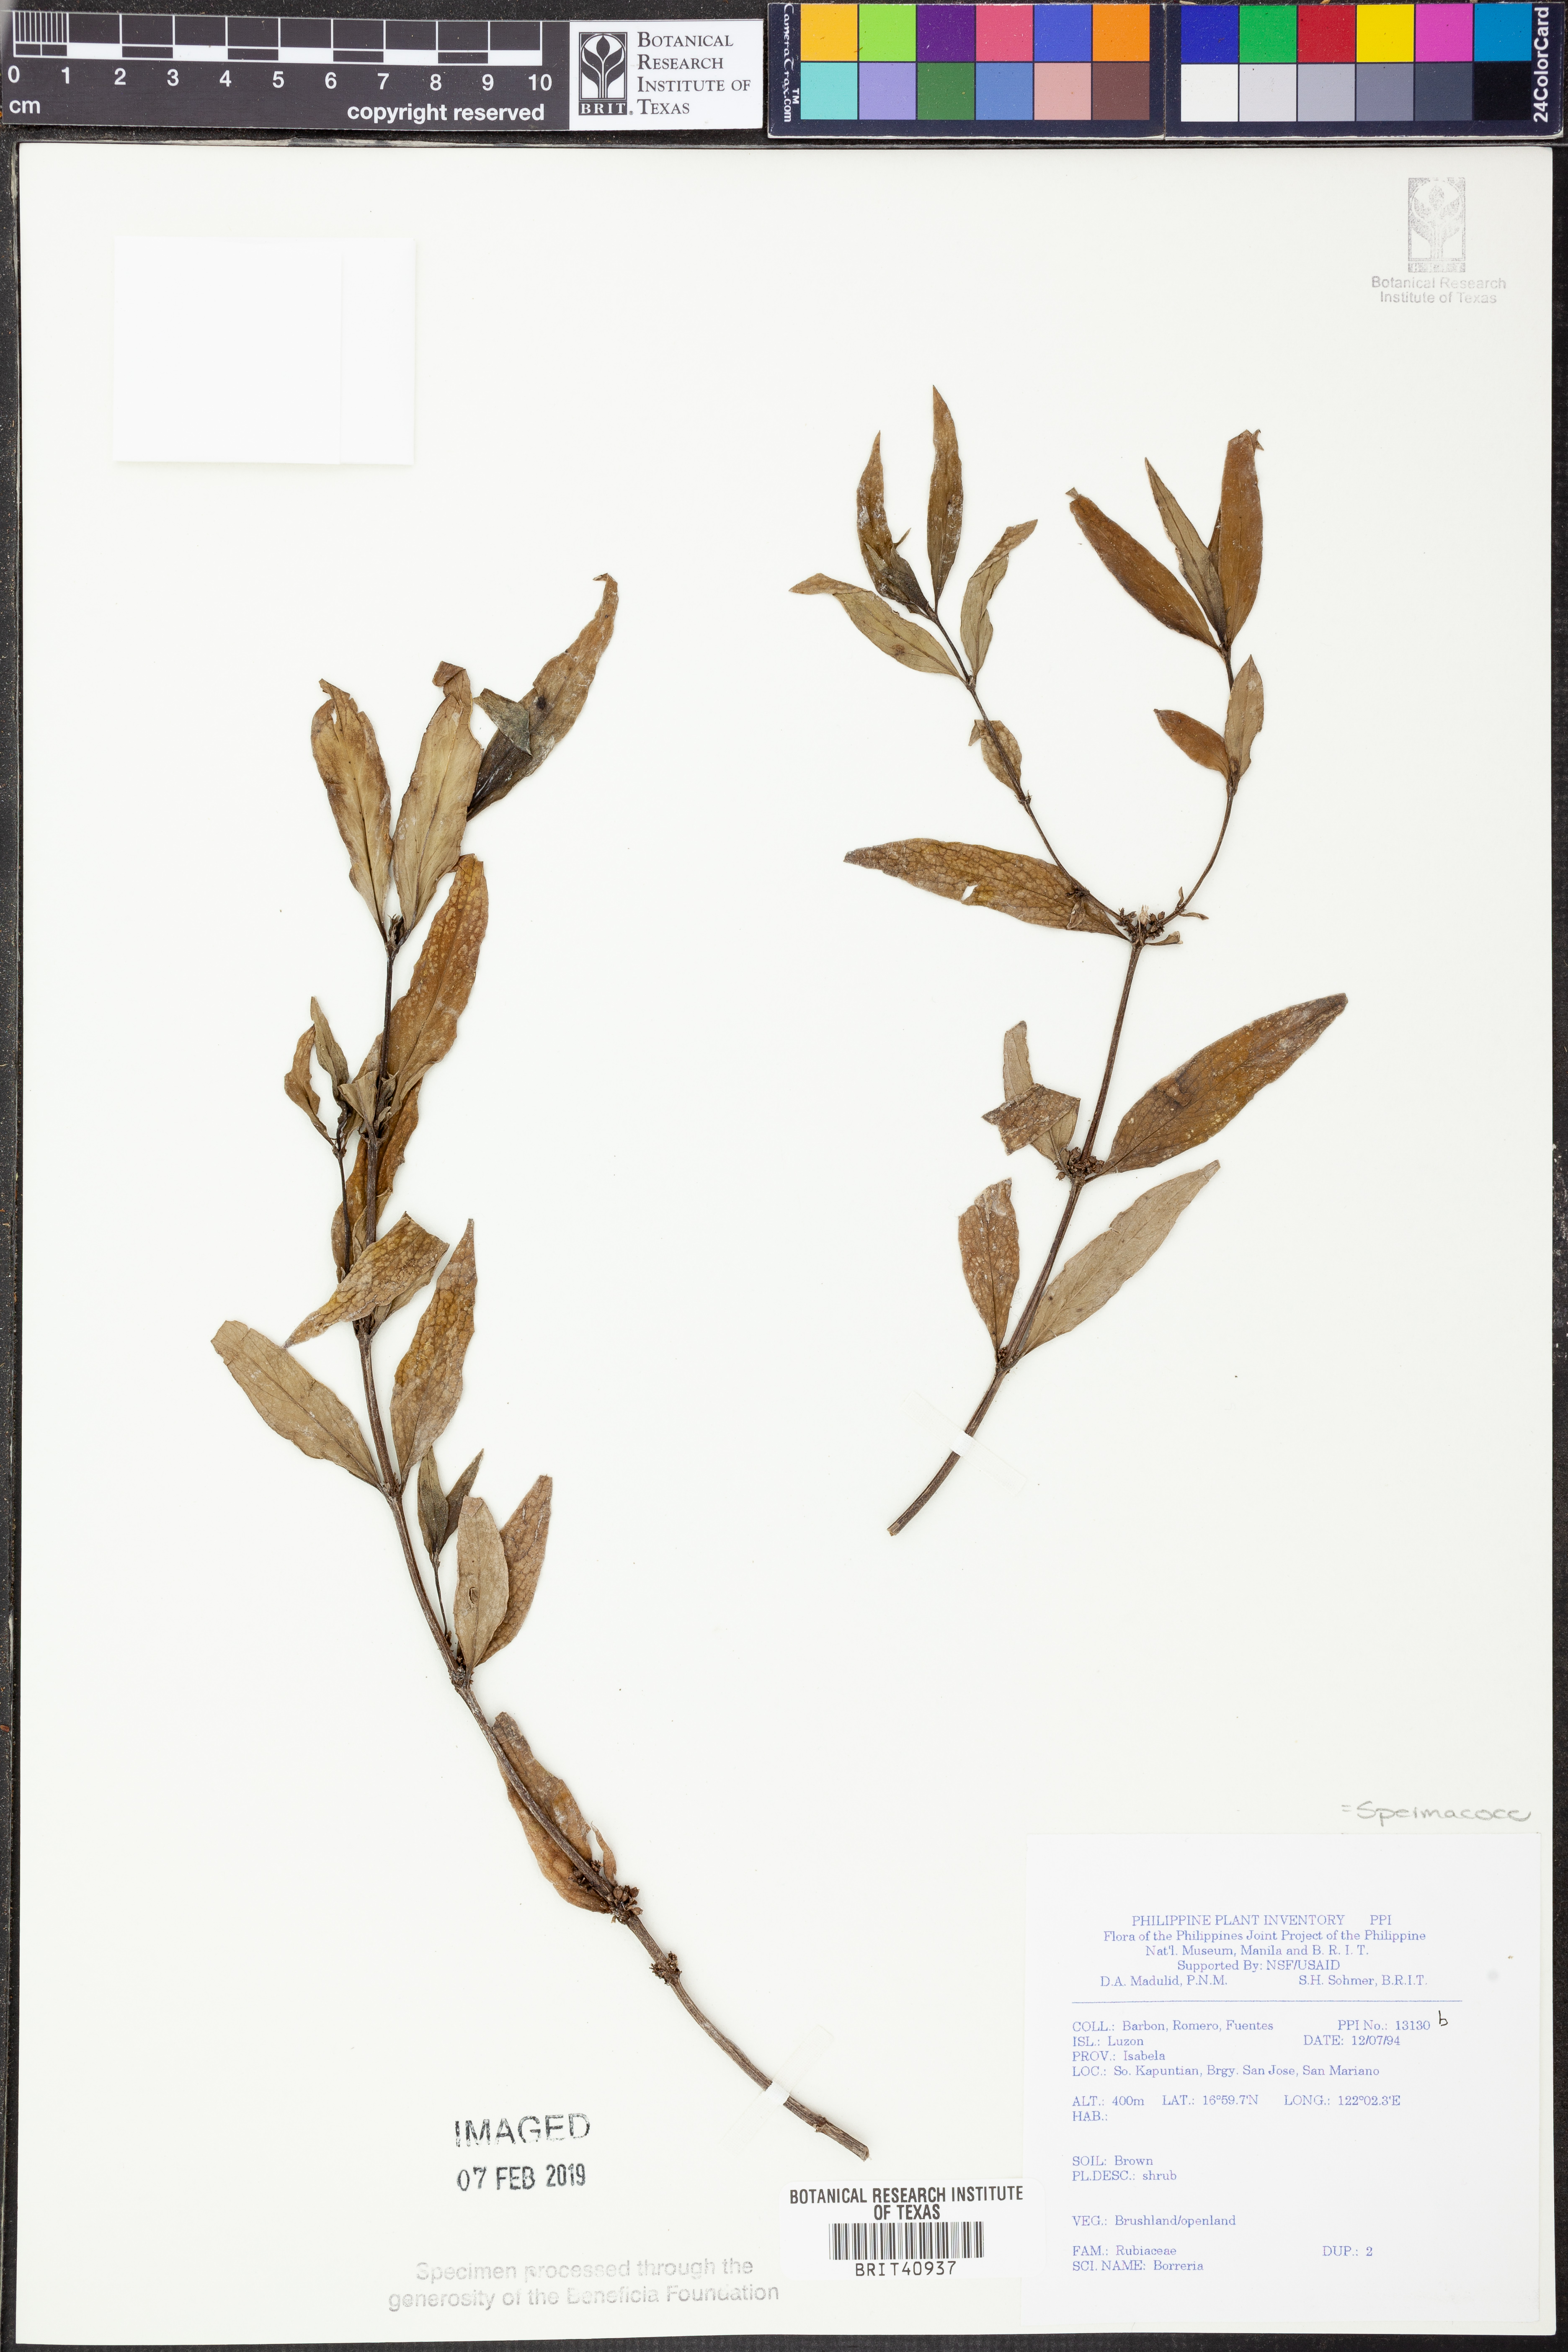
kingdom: Plantae
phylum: Tracheophyta
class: Magnoliopsida
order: Gentianales
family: Rubiaceae
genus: Spermacoce
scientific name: Spermacoce
